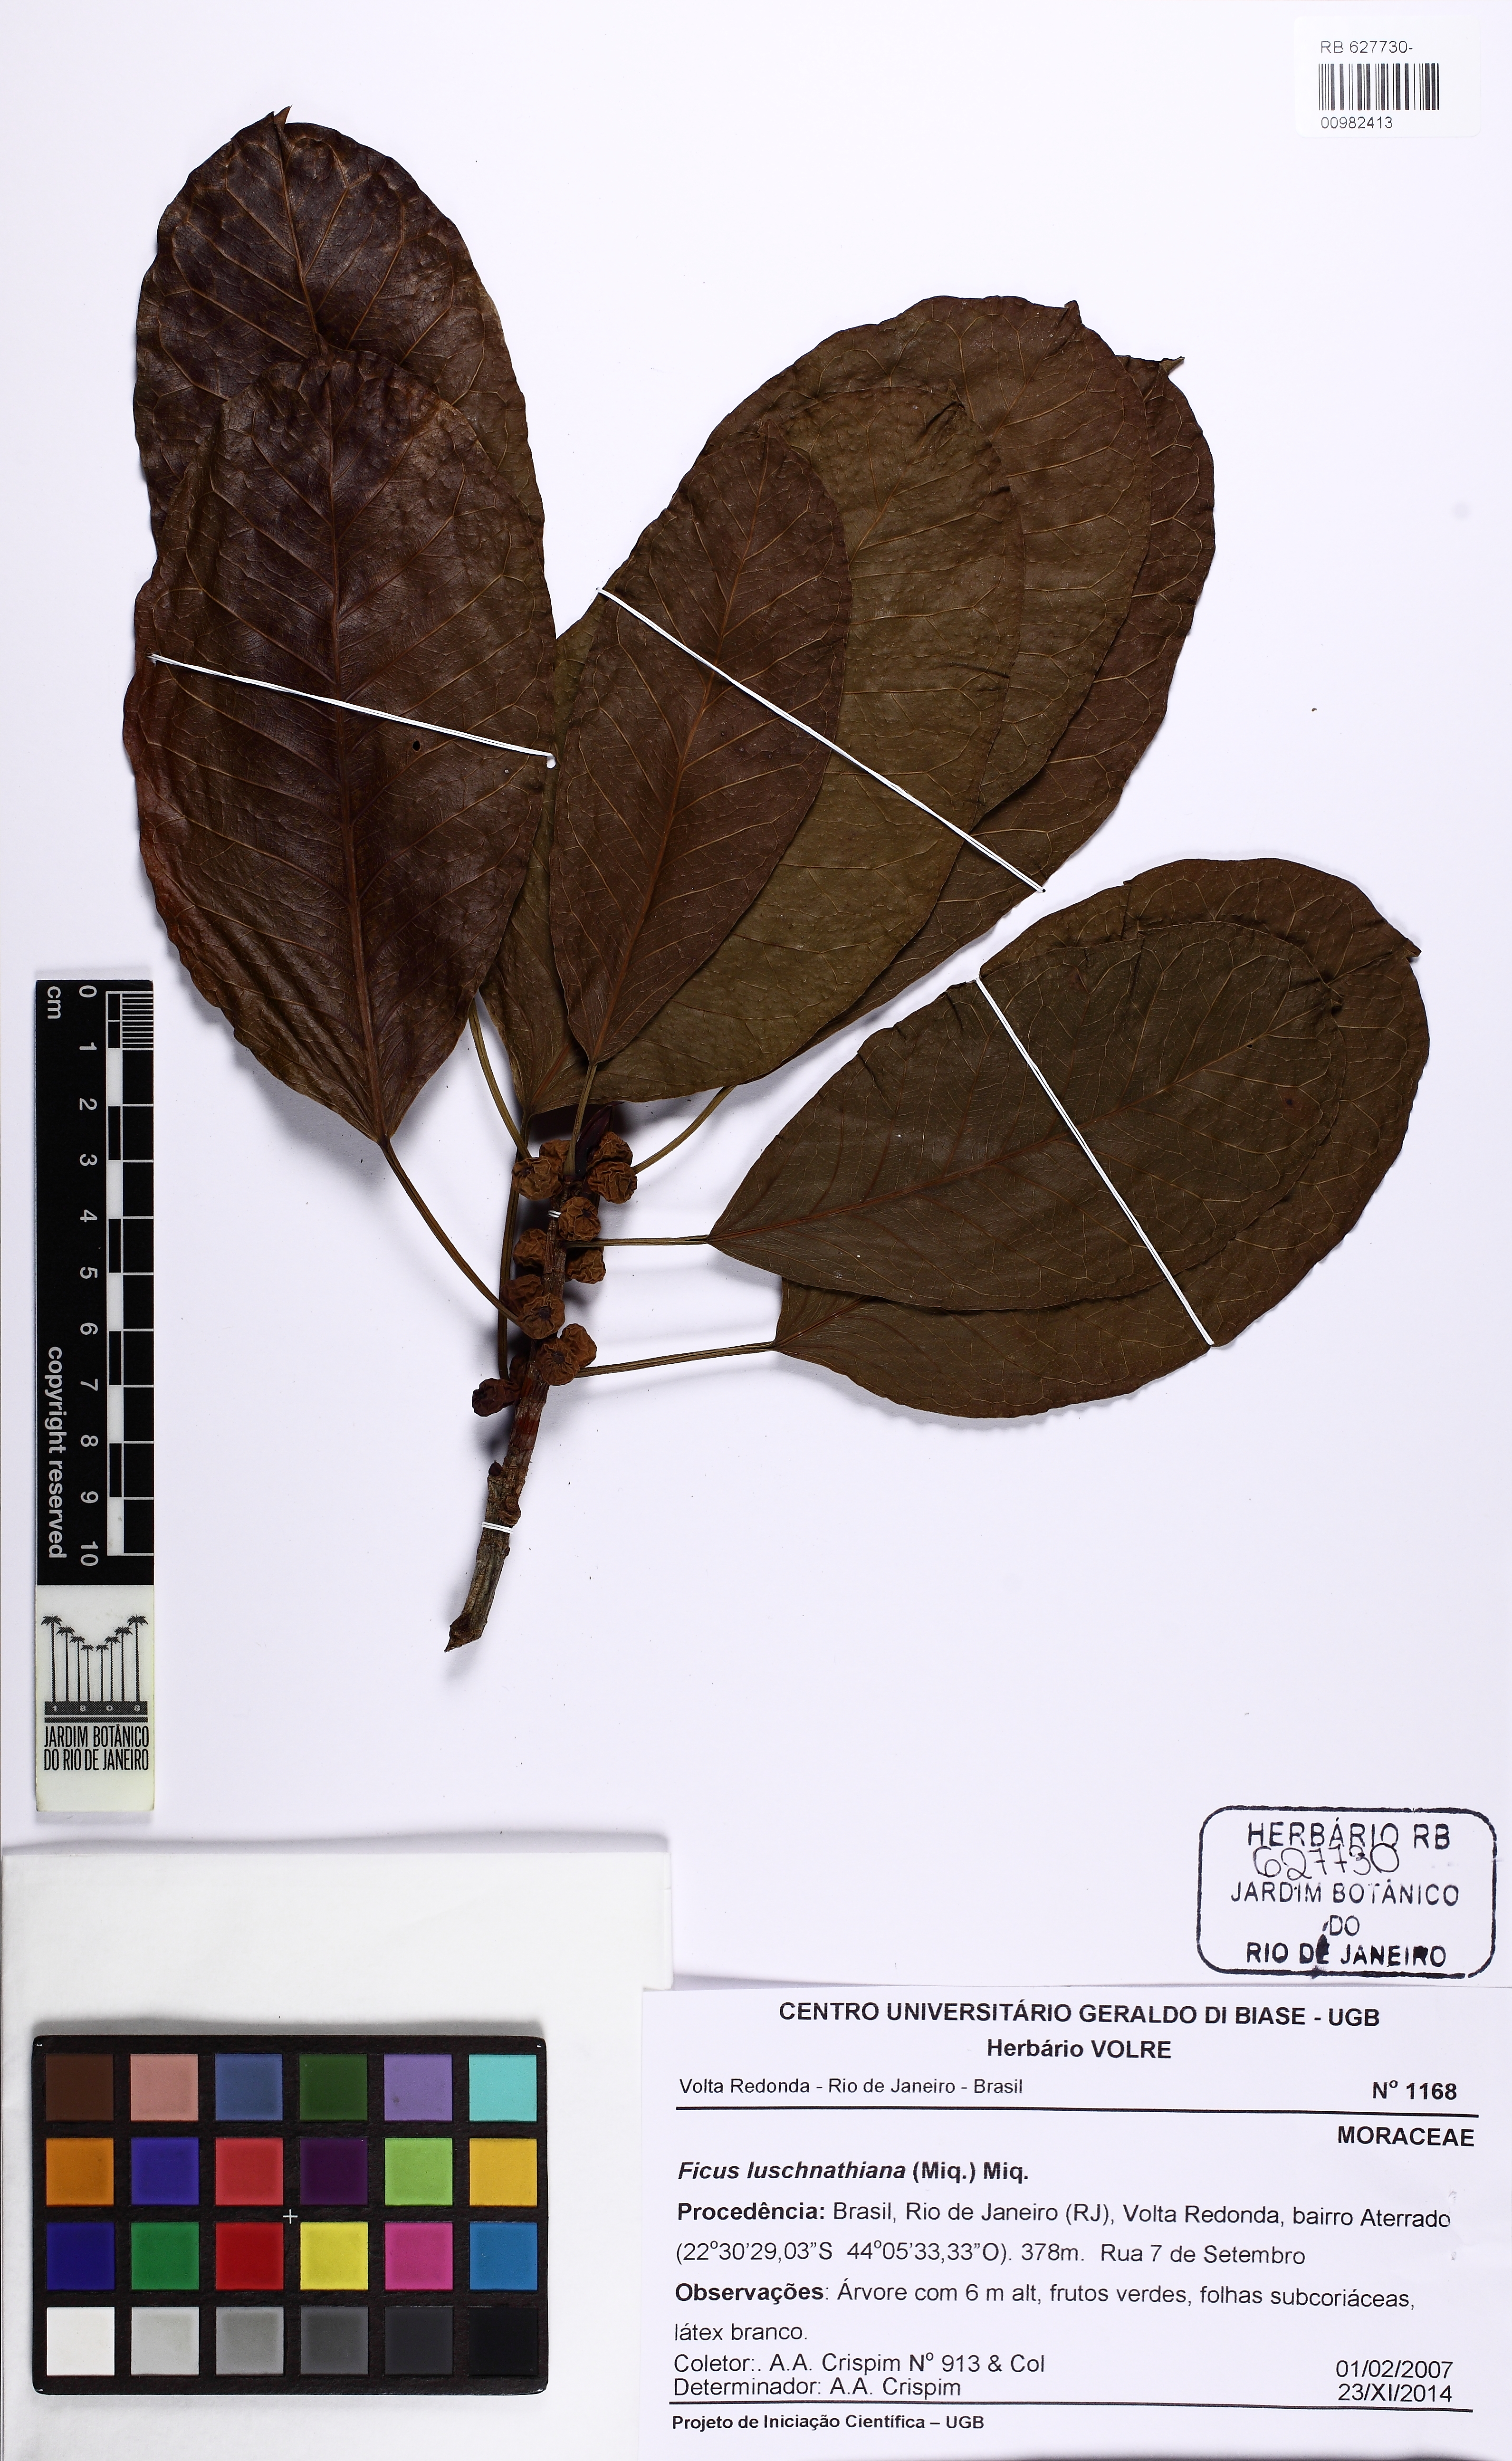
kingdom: Plantae
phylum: Tracheophyta
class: Magnoliopsida
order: Rosales
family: Moraceae
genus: Ficus
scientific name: Ficus luschnathiana
